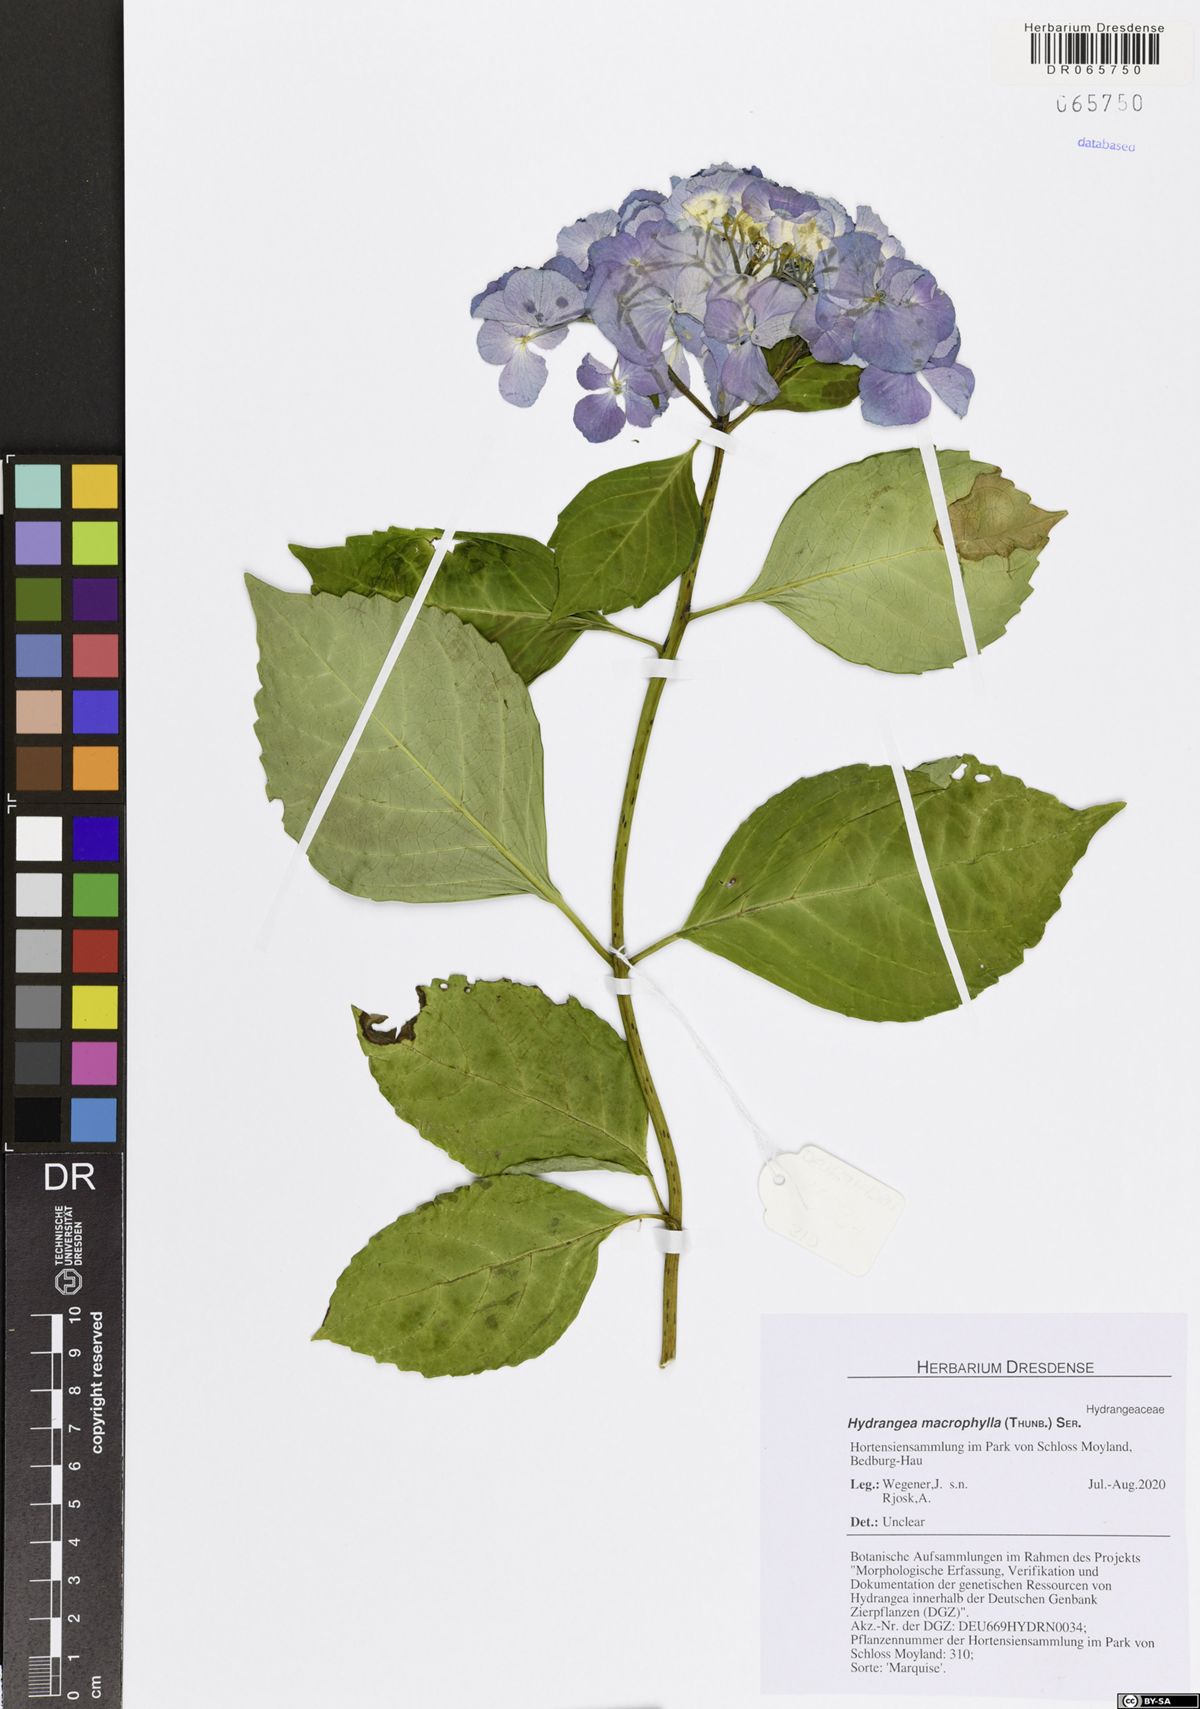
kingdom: Plantae
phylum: Tracheophyta
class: Magnoliopsida
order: Cornales
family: Hydrangeaceae
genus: Hydrangea
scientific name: Hydrangea macrophylla
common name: Hydrangea
